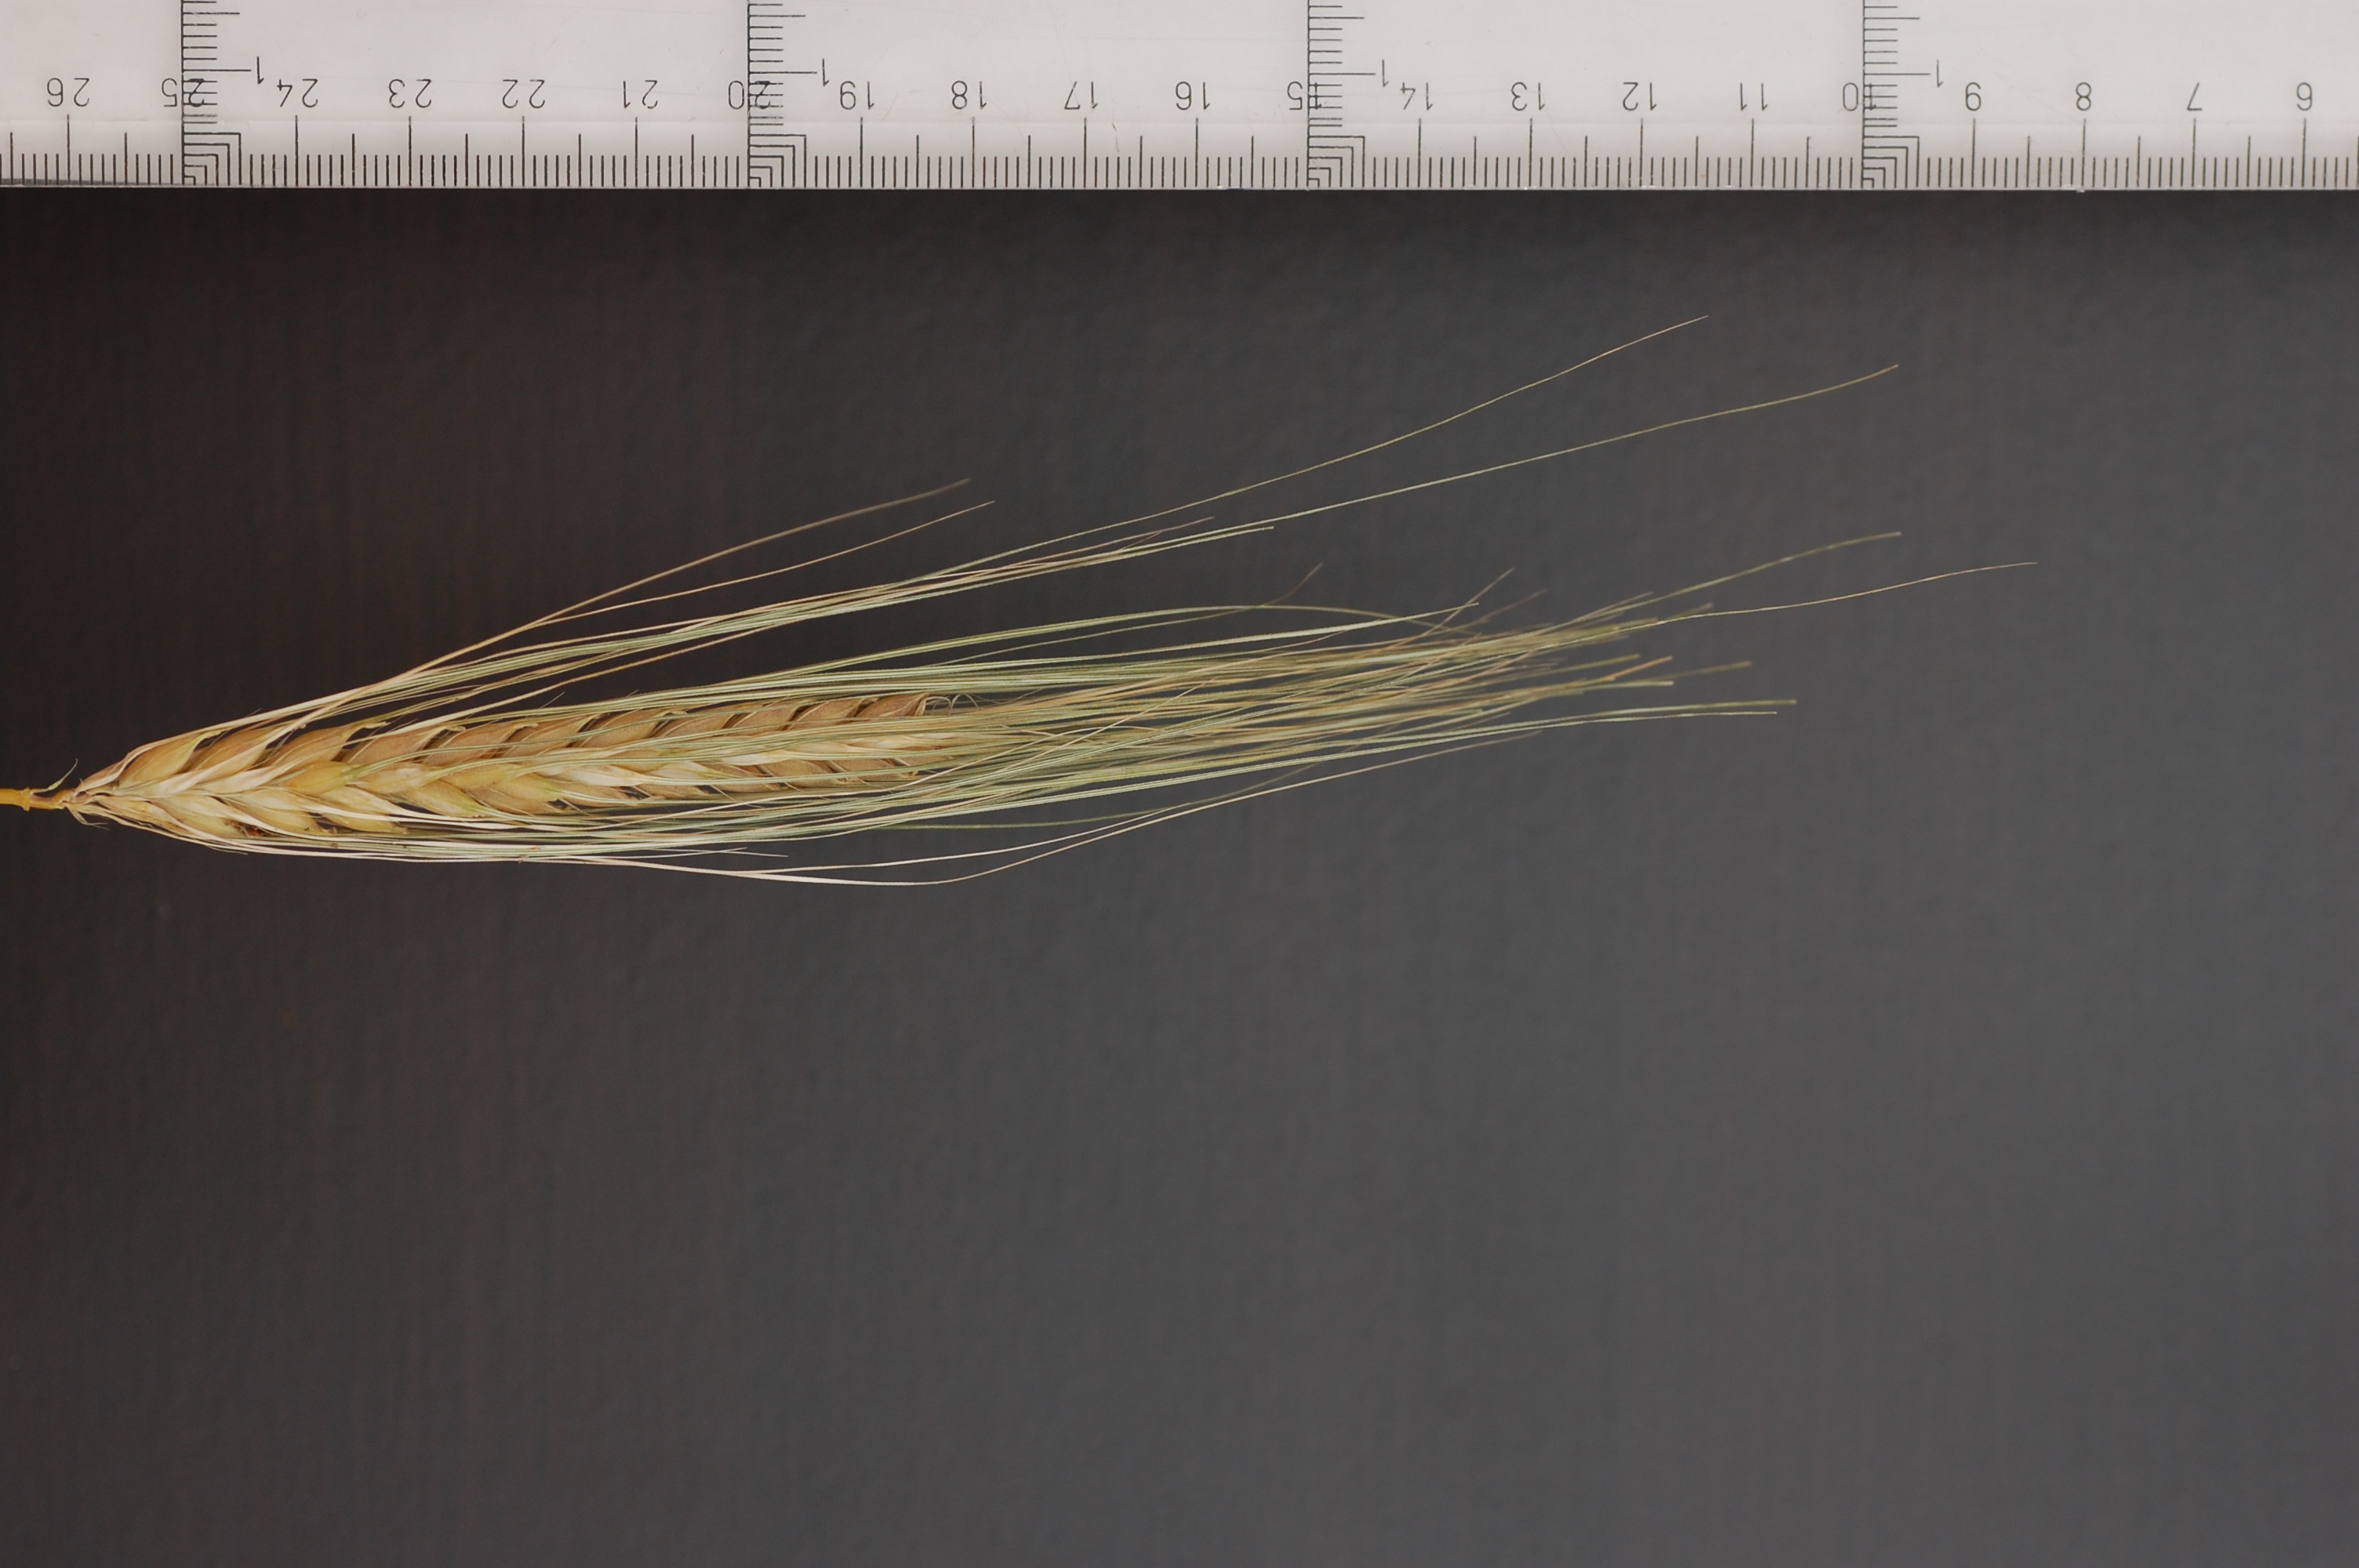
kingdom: Plantae
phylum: Tracheophyta
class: Liliopsida
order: Poales
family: Poaceae
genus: Hordeum
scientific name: Hordeum vulgare
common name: Common barley
